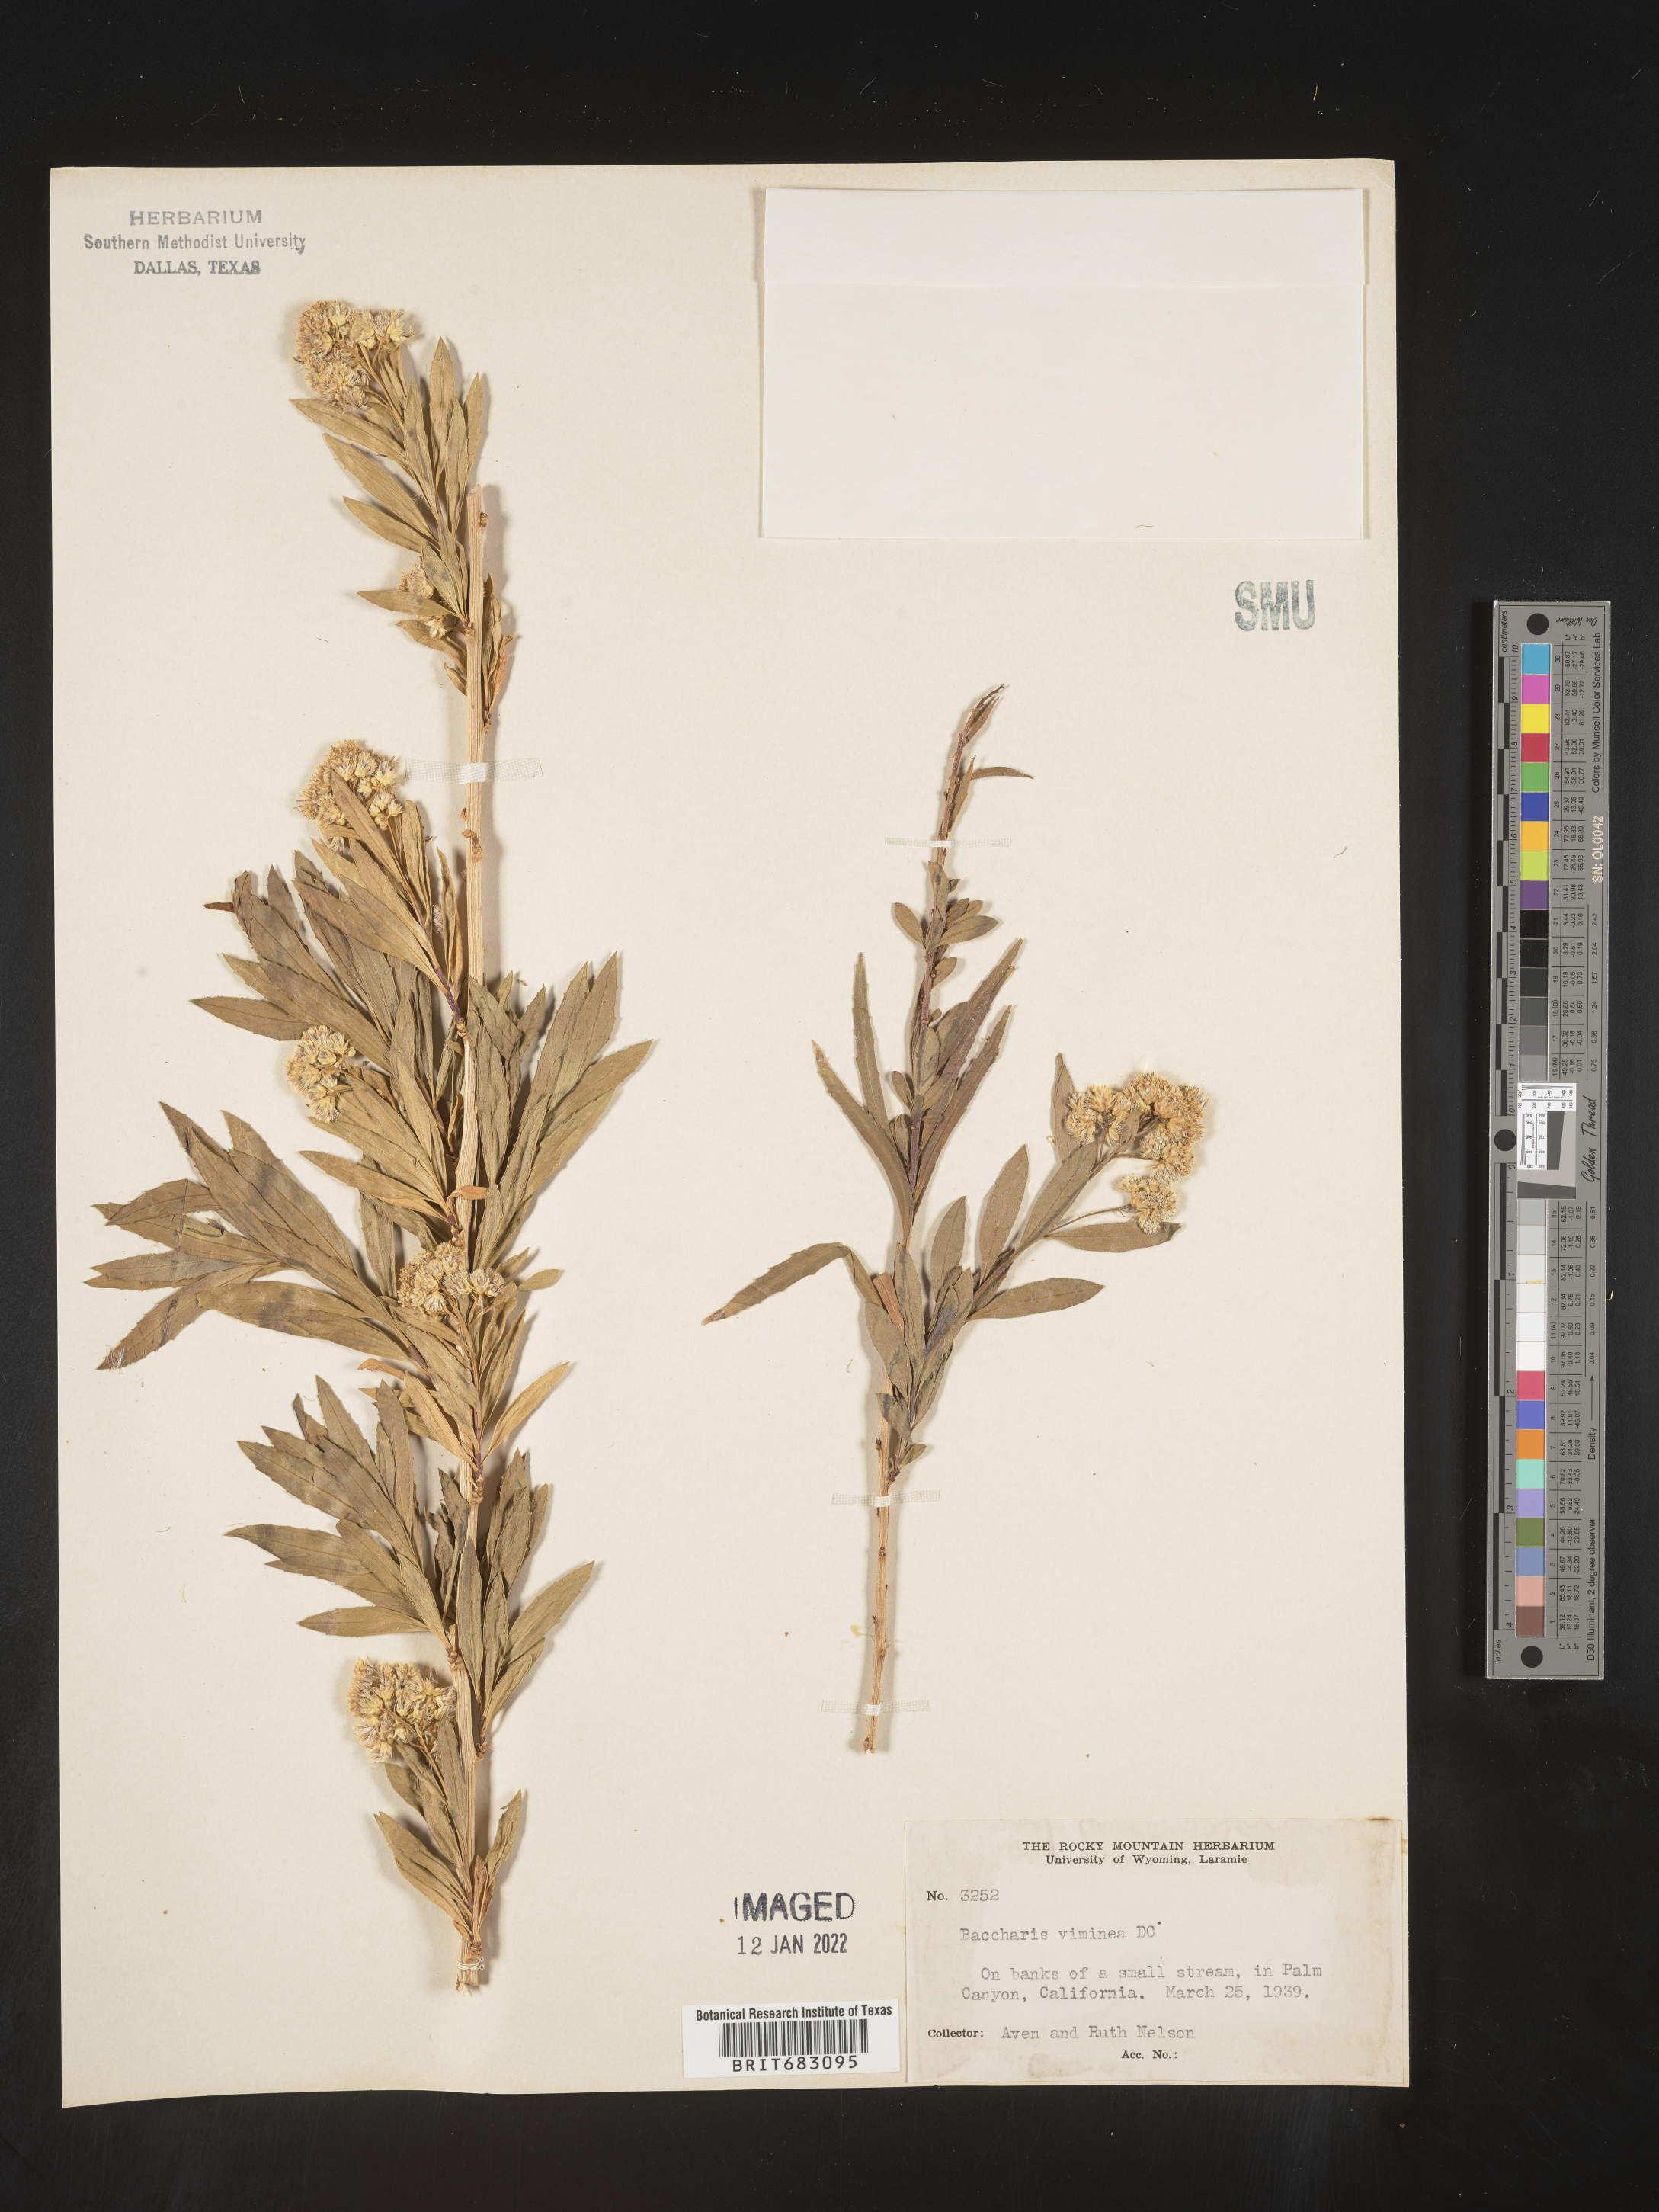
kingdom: Plantae
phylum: Tracheophyta
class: Magnoliopsida
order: Asterales
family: Asteraceae
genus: Baccharis
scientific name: Baccharis salicifolia
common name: Sticky baccharis
